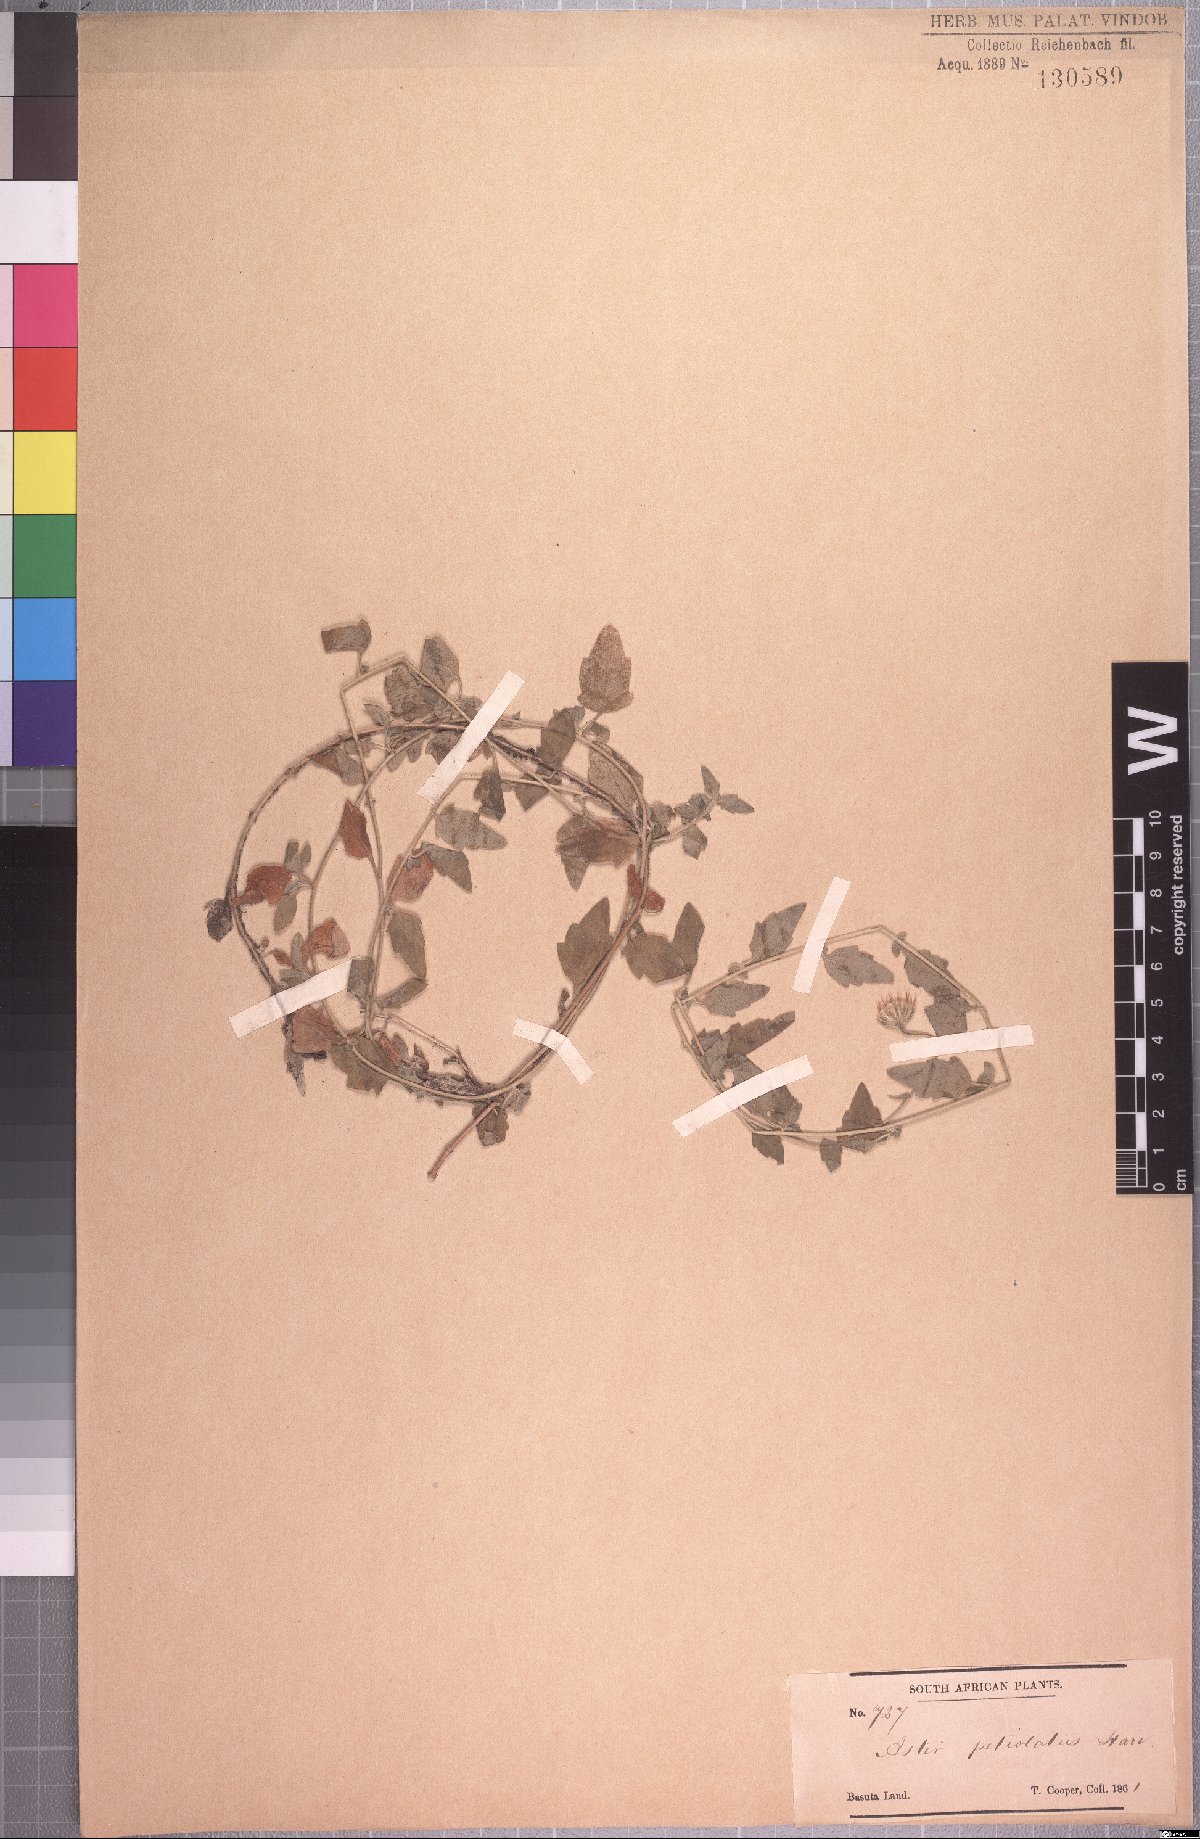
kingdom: Plantae
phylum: Tracheophyta
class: Magnoliopsida
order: Asterales
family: Asteraceae
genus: Felicia
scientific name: Felicia petiolata
